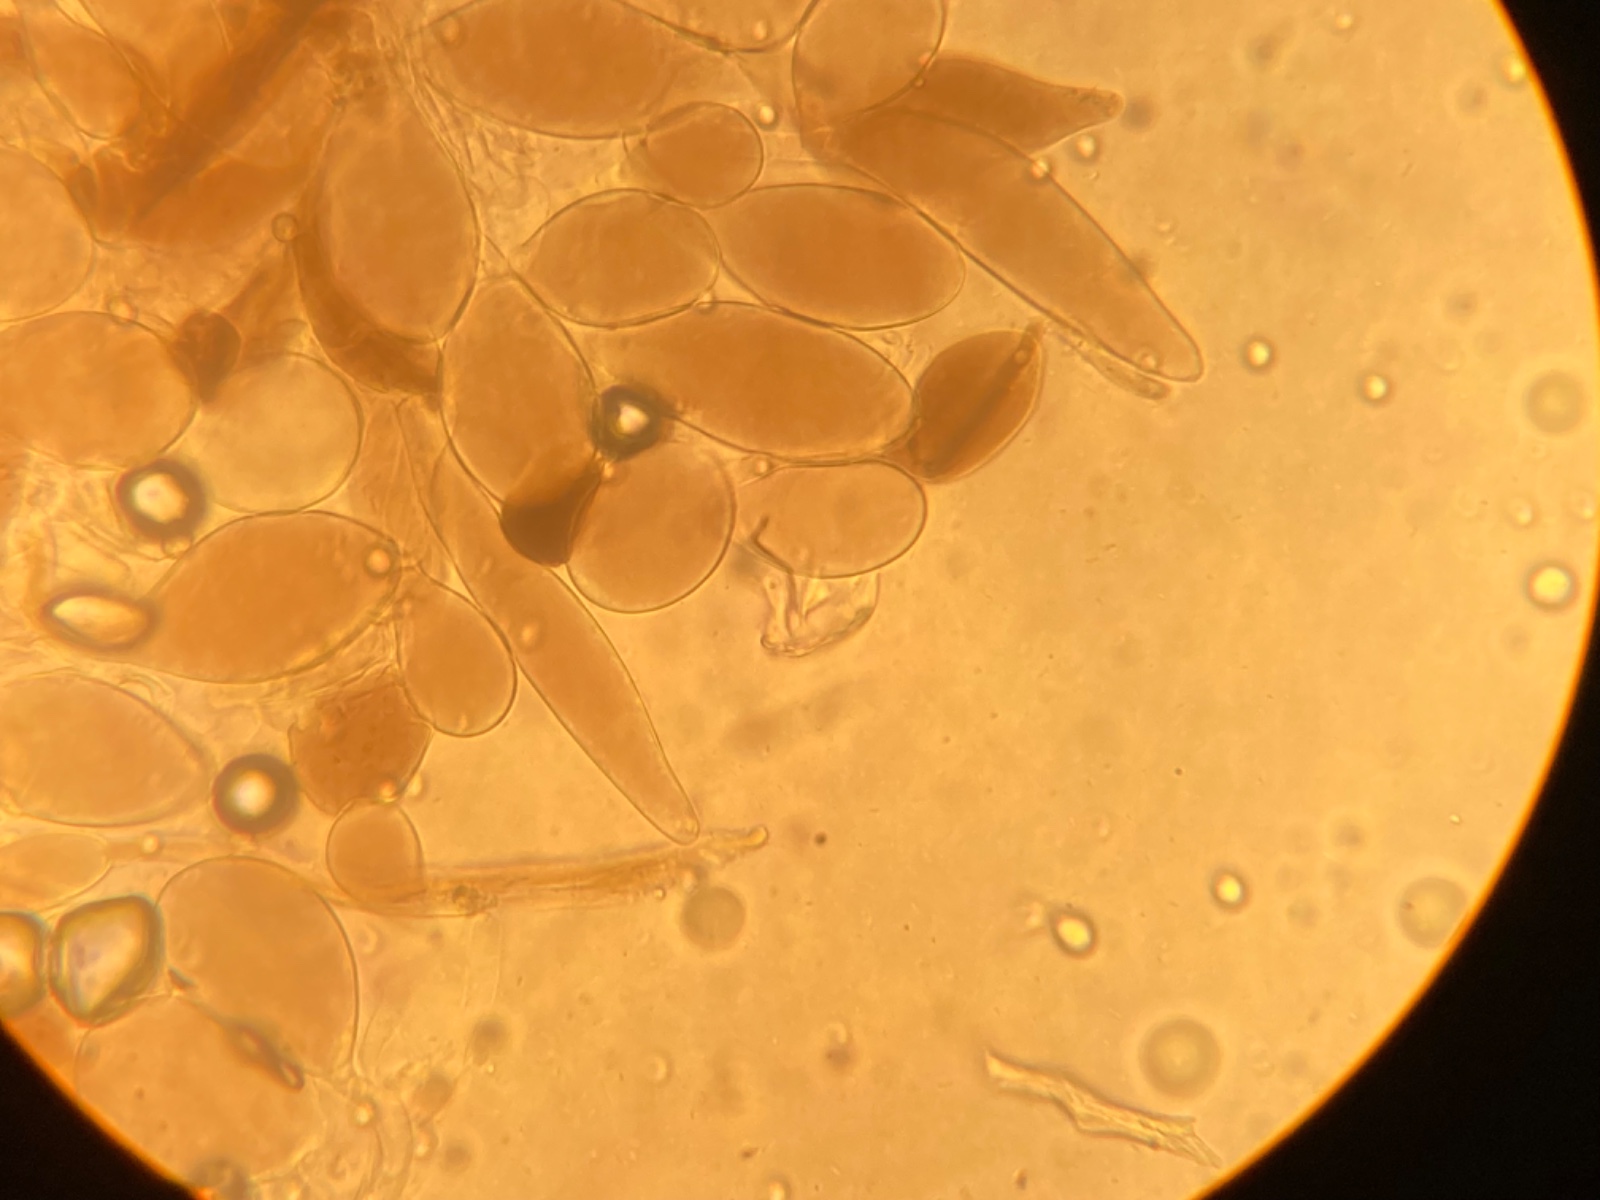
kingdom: Fungi
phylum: Basidiomycota
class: Agaricomycetes
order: Agaricales
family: Pluteaceae
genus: Pluteus
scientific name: Pluteus podospileus
